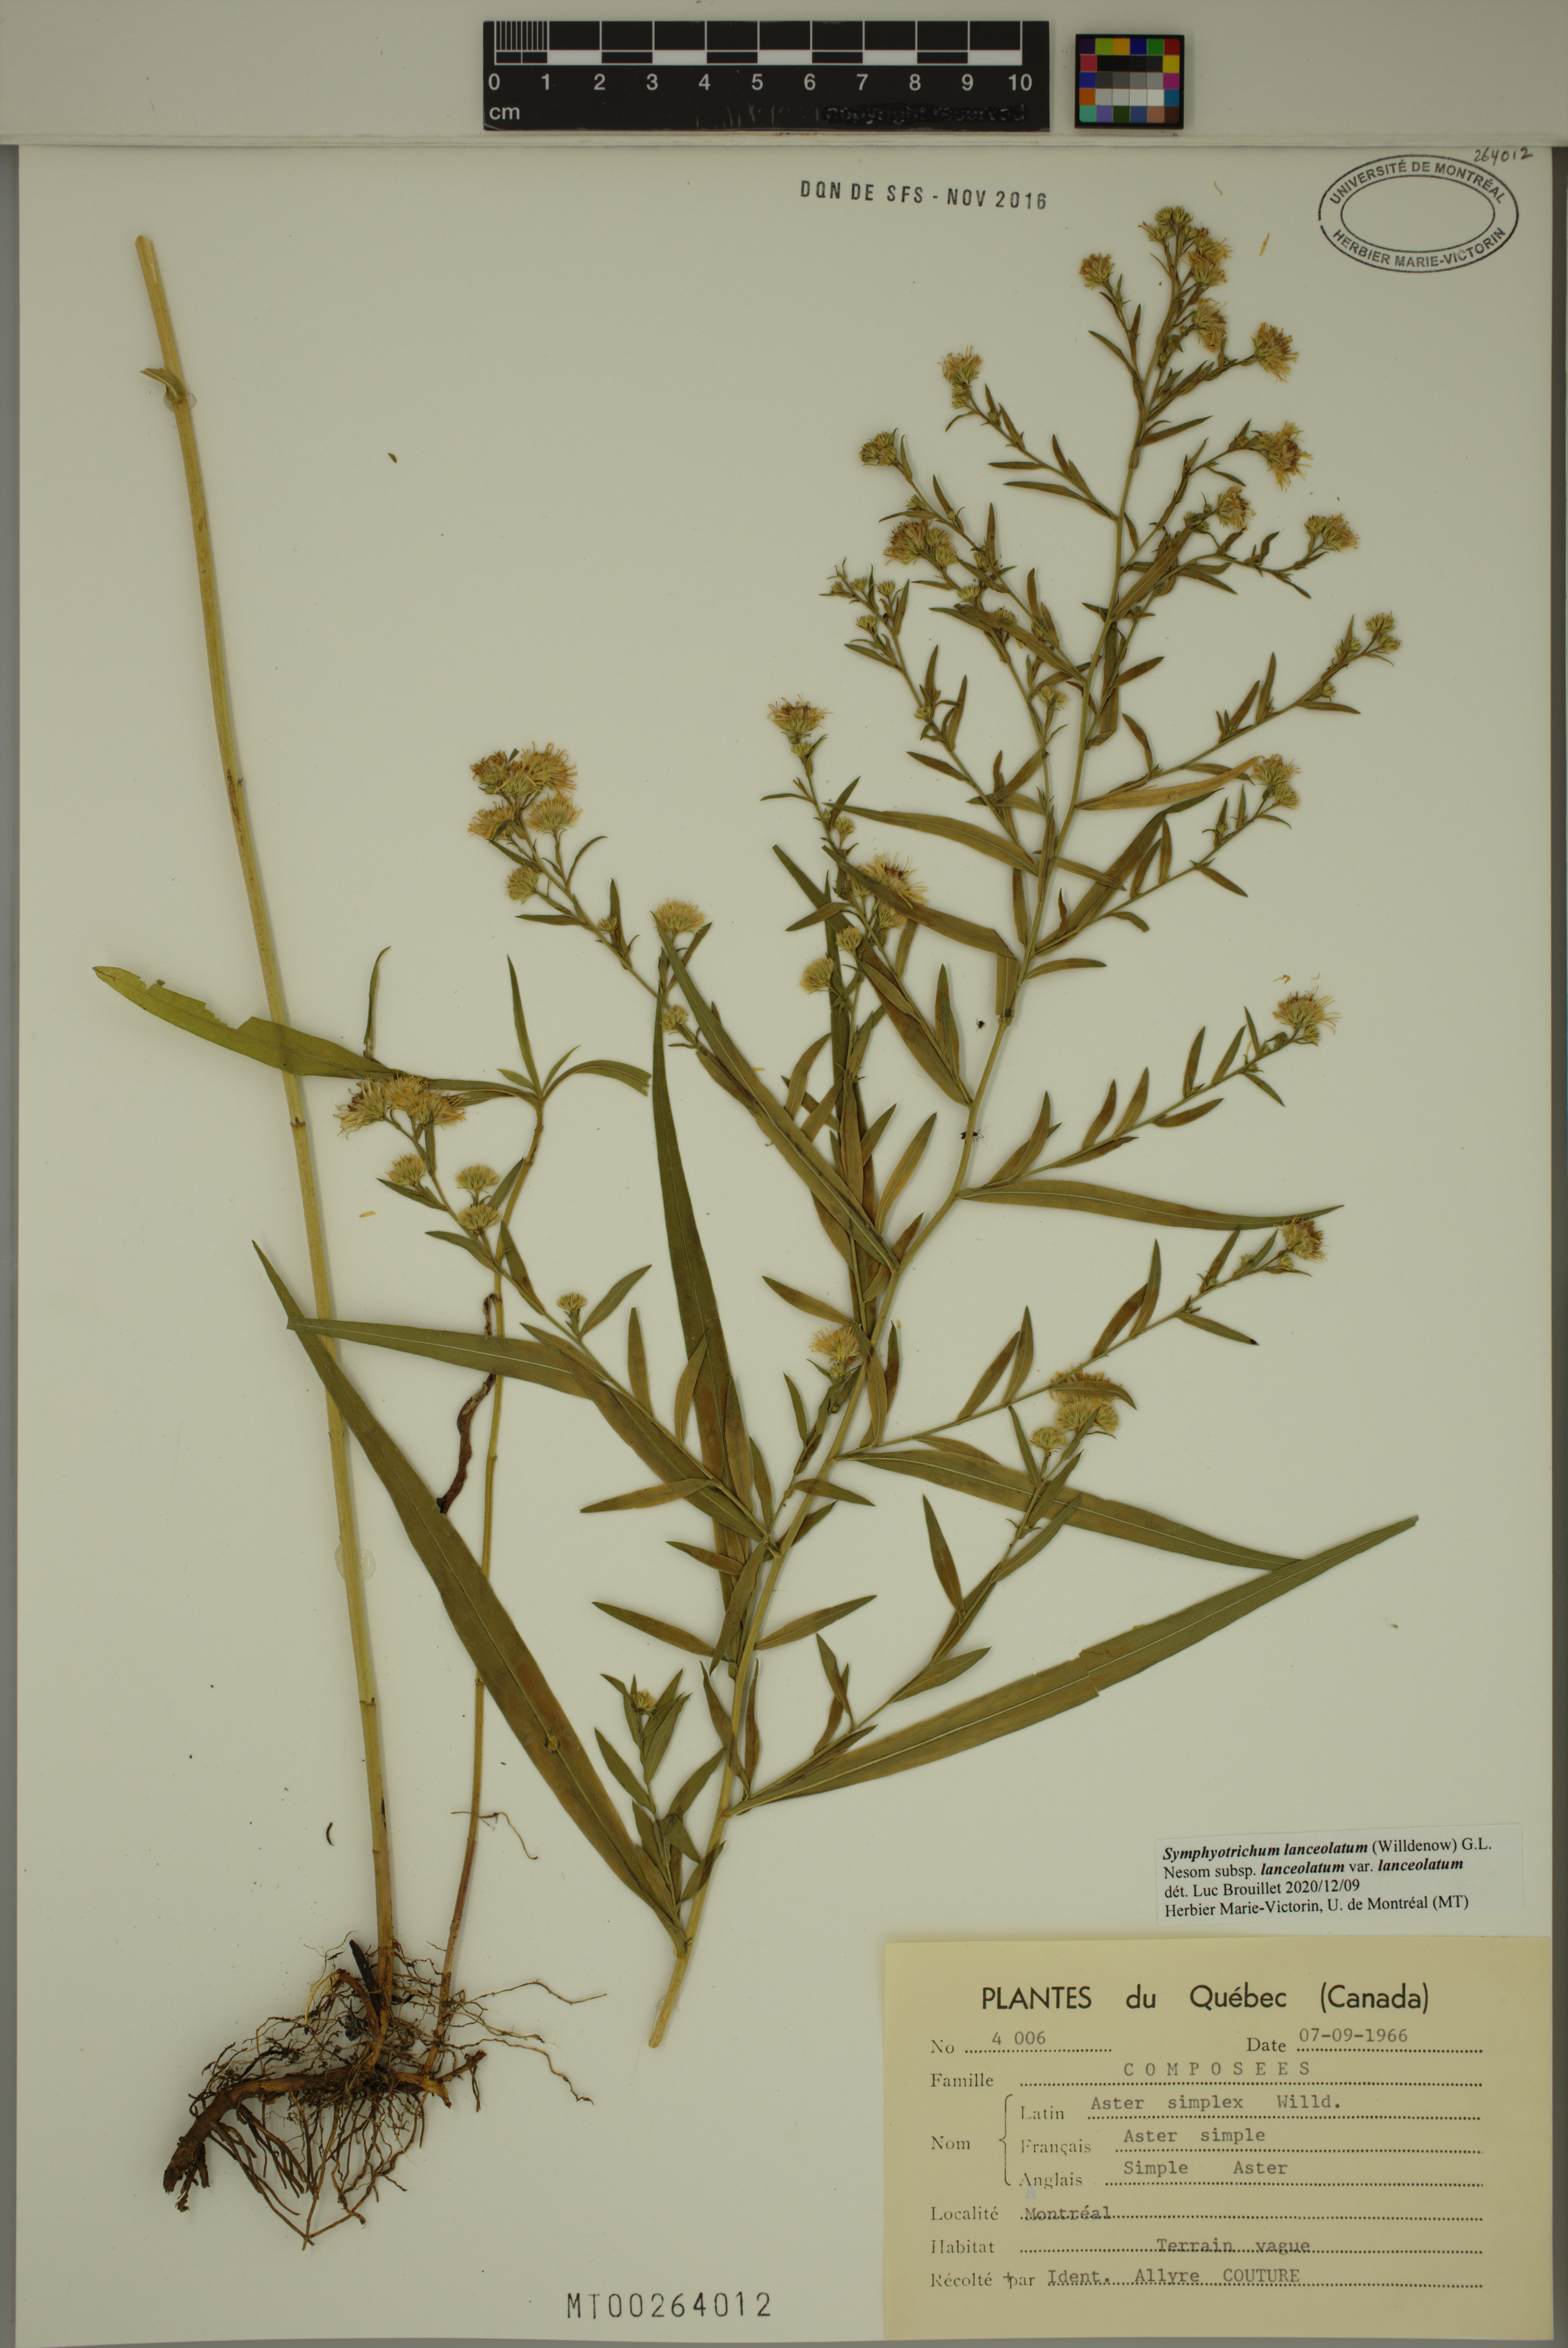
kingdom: Plantae
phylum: Tracheophyta
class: Magnoliopsida
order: Asterales
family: Asteraceae
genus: Symphyotrichum
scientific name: Symphyotrichum lanceolatum
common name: Panicled aster
